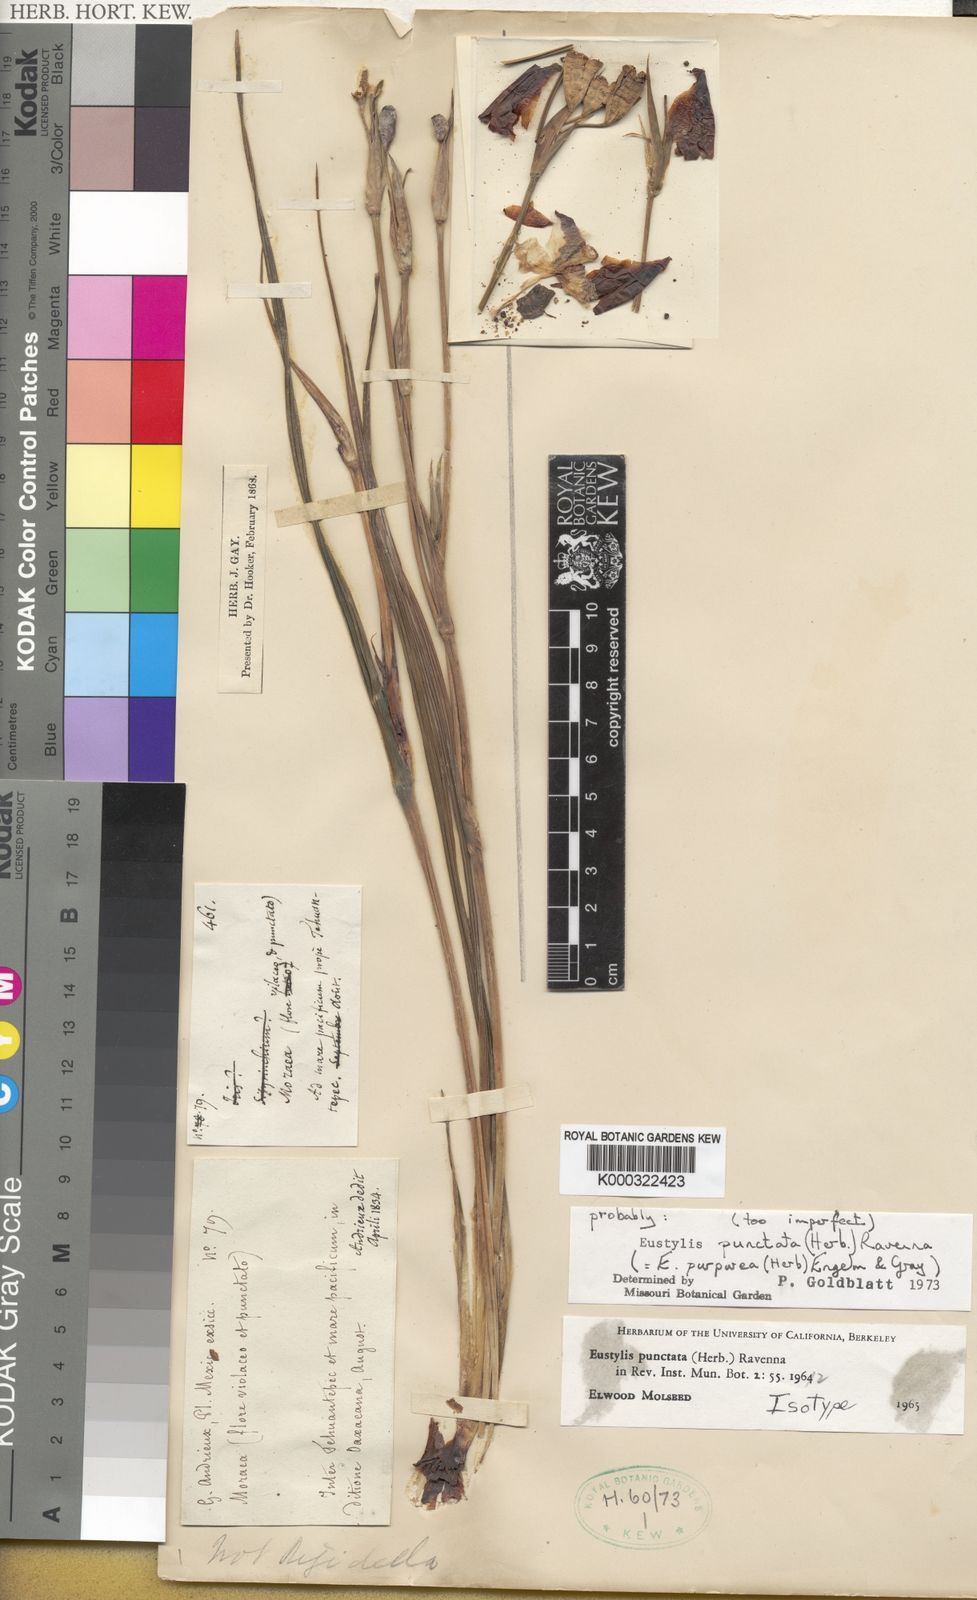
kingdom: Plantae
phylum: Tracheophyta
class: Liliopsida
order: Asparagales
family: Iridaceae
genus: Alophia
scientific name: Alophia drummondii
